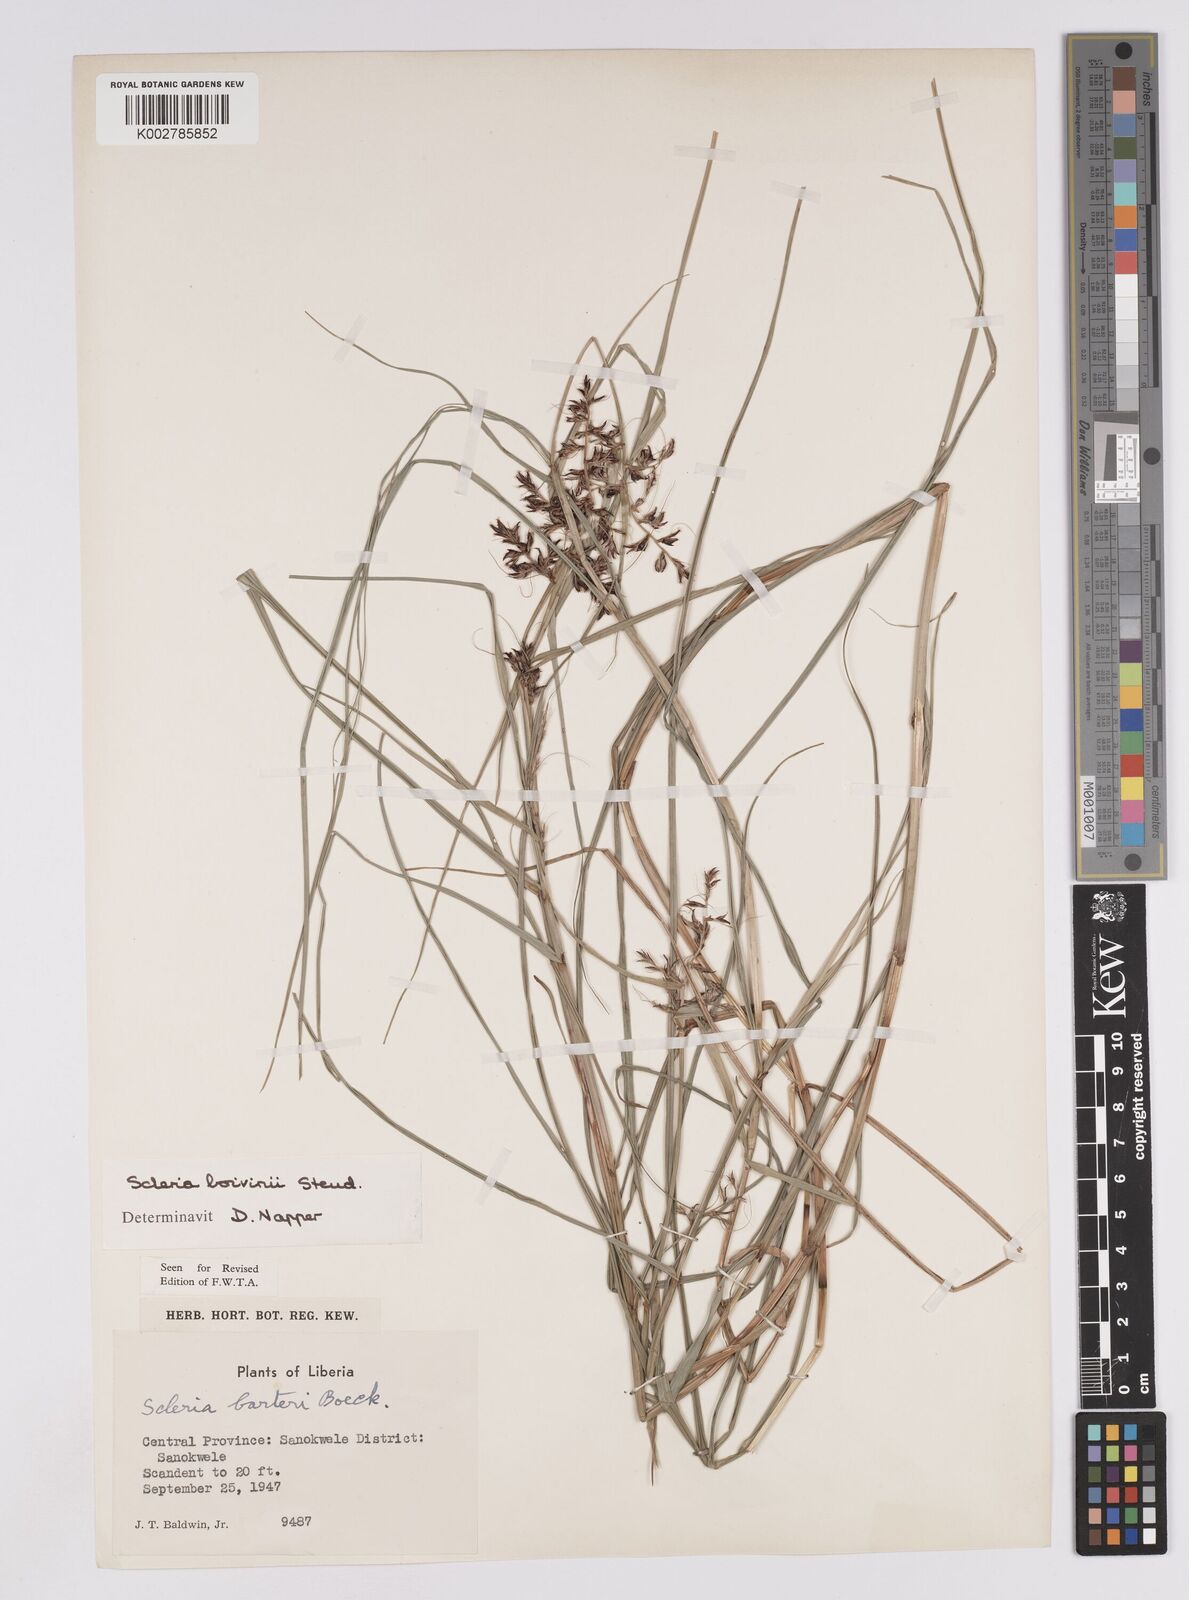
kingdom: Plantae
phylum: Tracheophyta
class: Liliopsida
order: Poales
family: Cyperaceae
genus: Scleria
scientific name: Scleria boivinii
